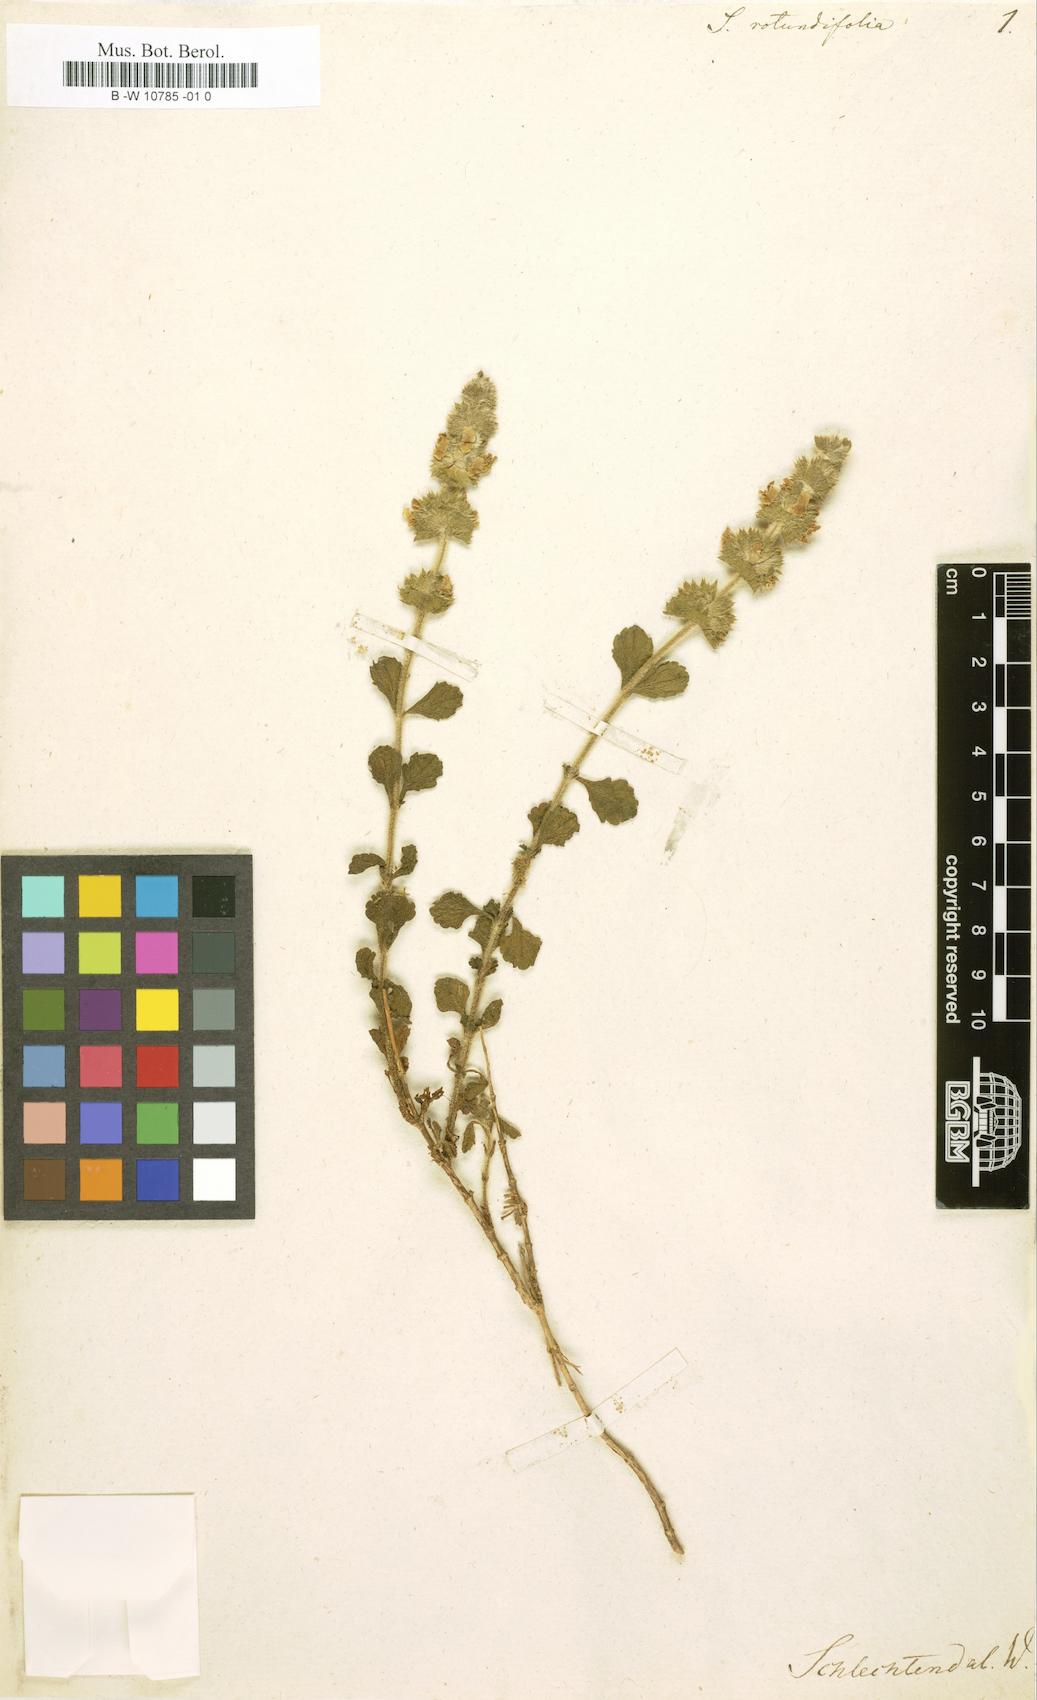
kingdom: Plantae
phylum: Tracheophyta
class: Magnoliopsida
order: Lamiales
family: Lamiaceae
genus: Sideritis
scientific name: Sideritis hirsuta
